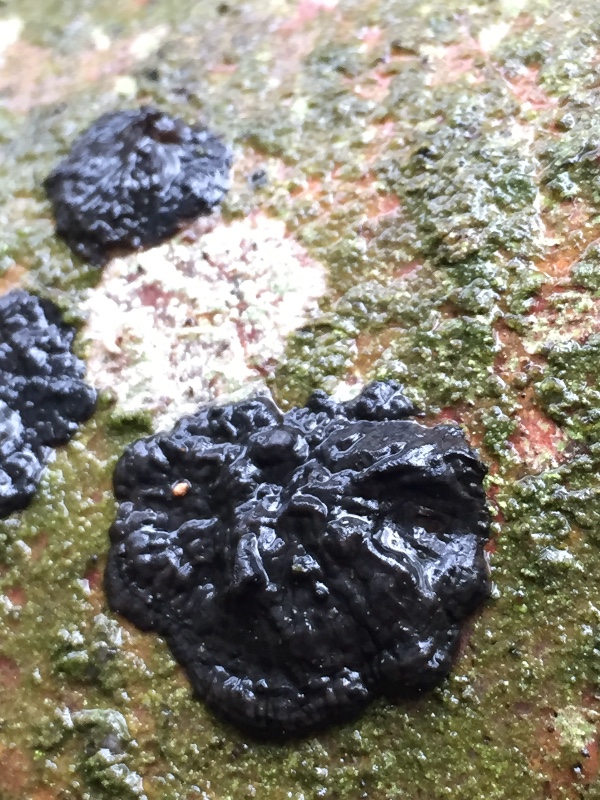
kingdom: Fungi
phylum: Basidiomycota
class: Agaricomycetes
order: Auriculariales
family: Auriculariaceae
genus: Exidia
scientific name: Exidia pithya
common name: gran-bævretop
